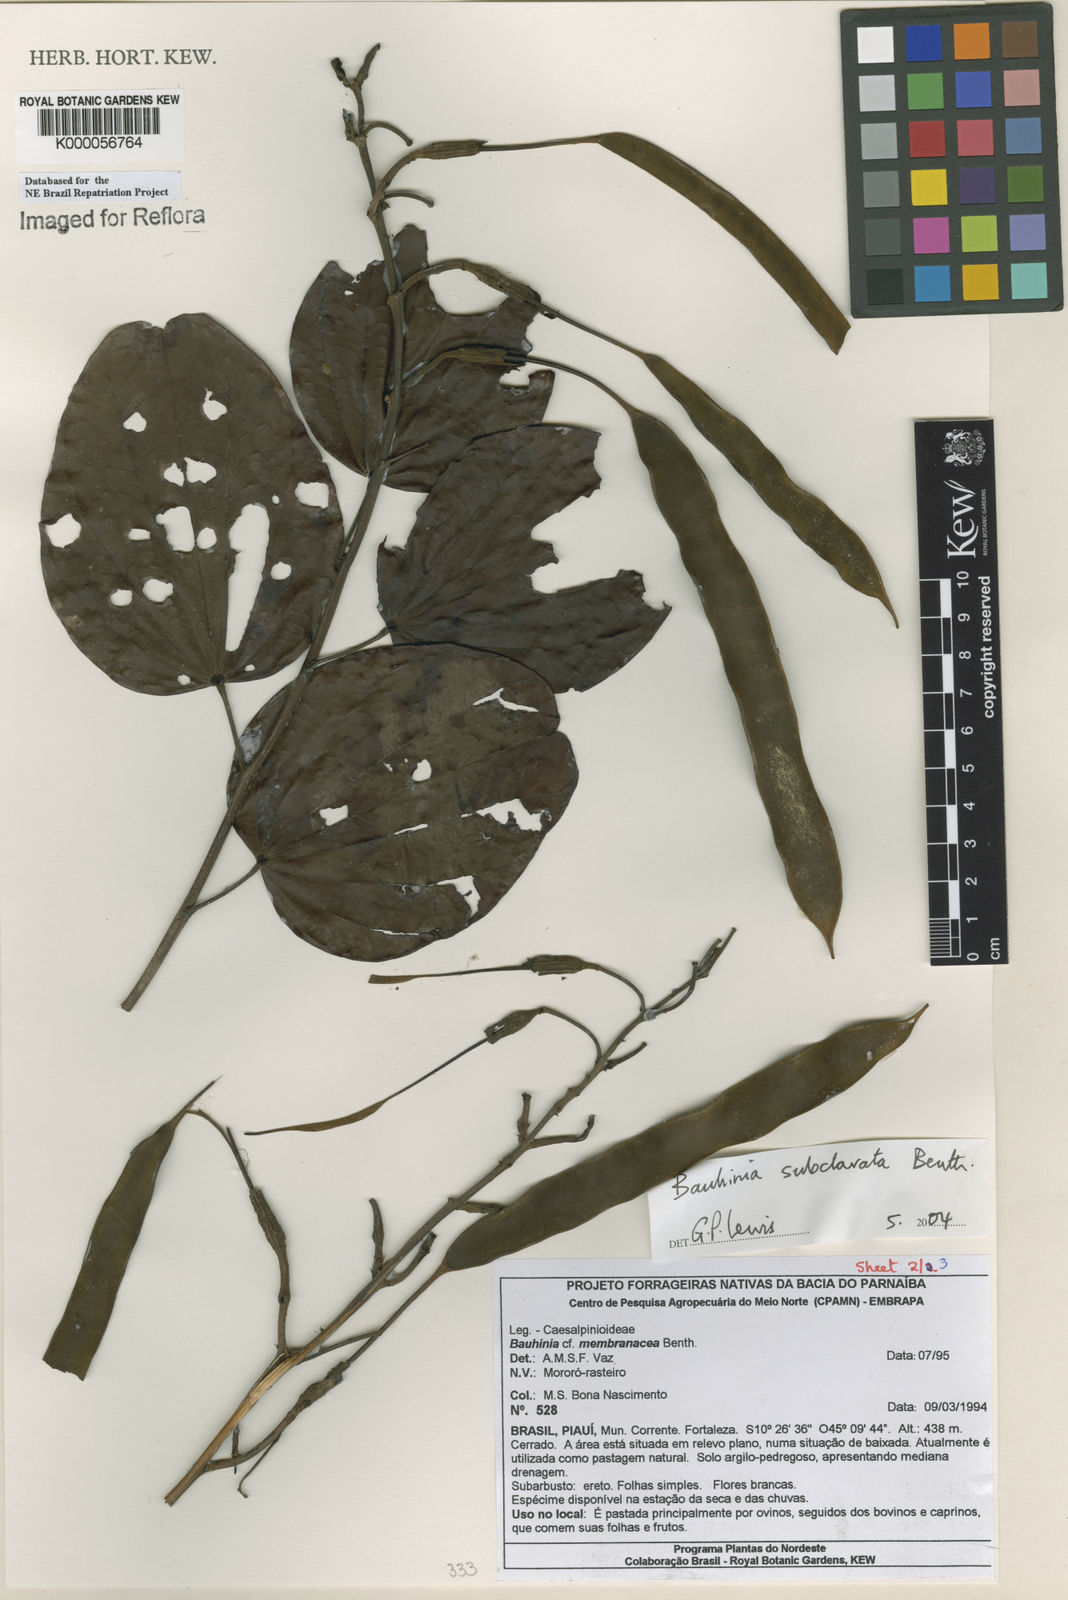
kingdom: Plantae
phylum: Tracheophyta
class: Magnoliopsida
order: Fabales
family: Fabaceae
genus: Bauhinia
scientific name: Bauhinia membranacea
